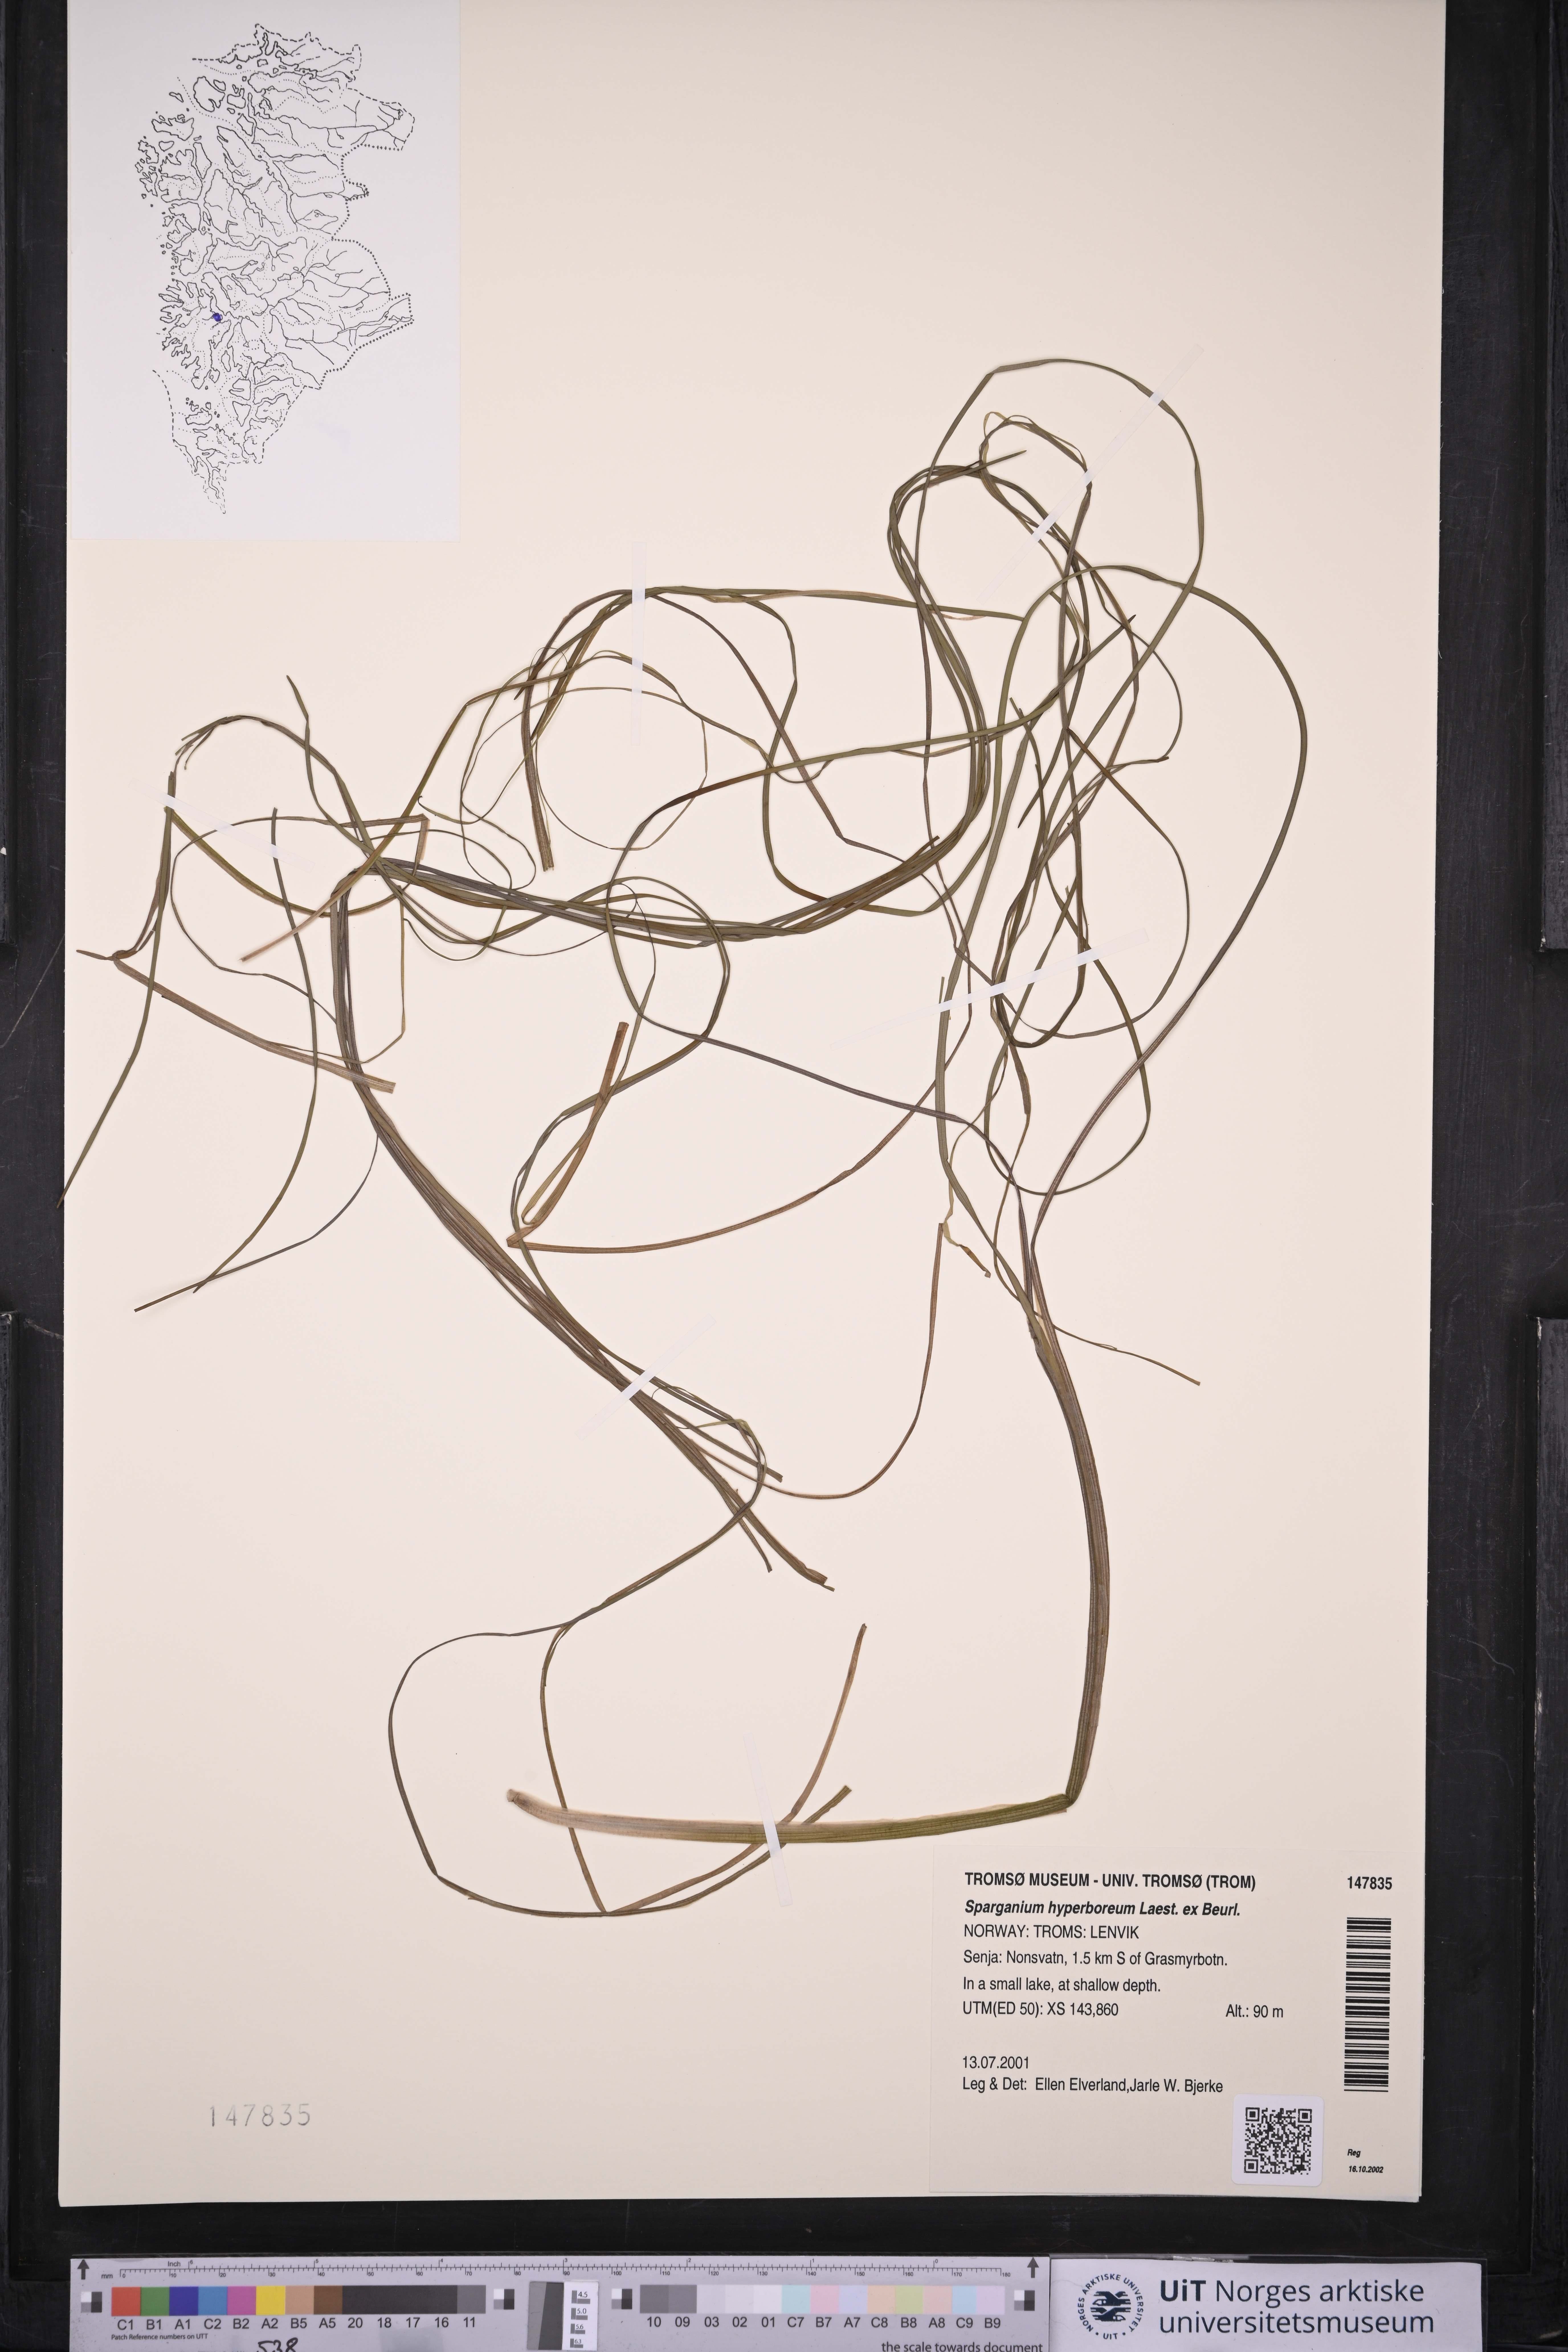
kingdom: Plantae
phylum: Tracheophyta
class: Liliopsida
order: Poales
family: Typhaceae
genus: Sparganium
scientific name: Sparganium hyperboreum
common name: Arctic burreed
